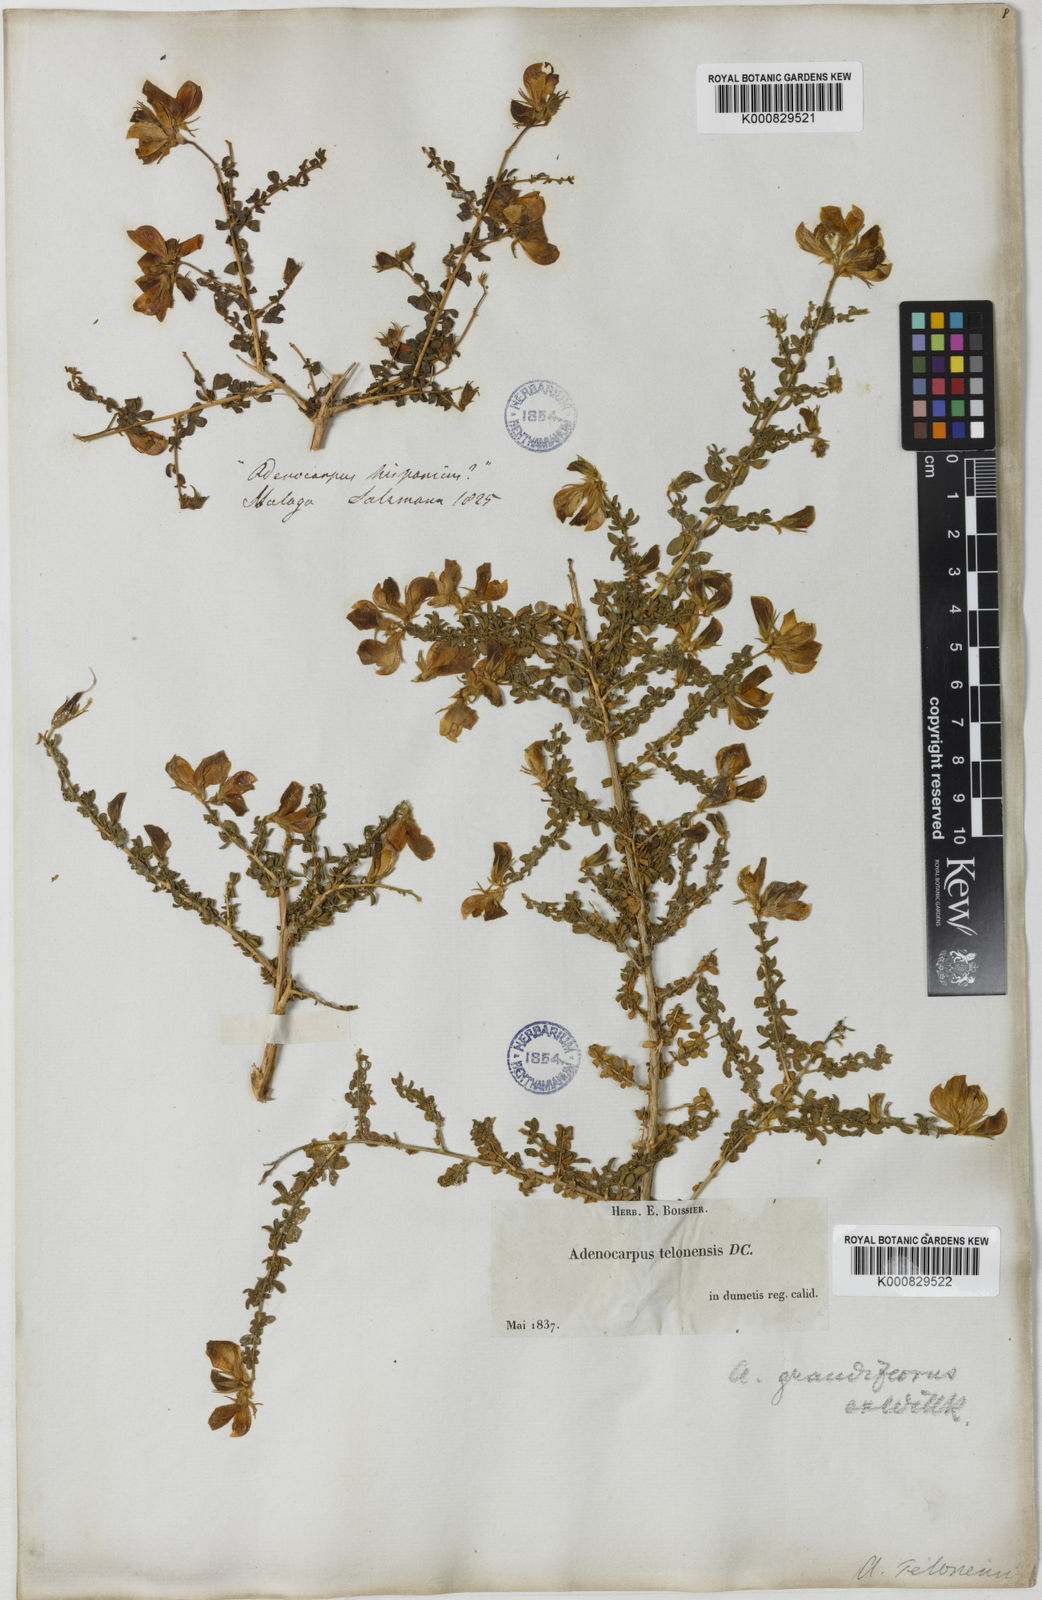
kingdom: Plantae
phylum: Tracheophyta
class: Magnoliopsida
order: Fabales
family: Fabaceae
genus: Adenocarpus
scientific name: Adenocarpus telonensis
